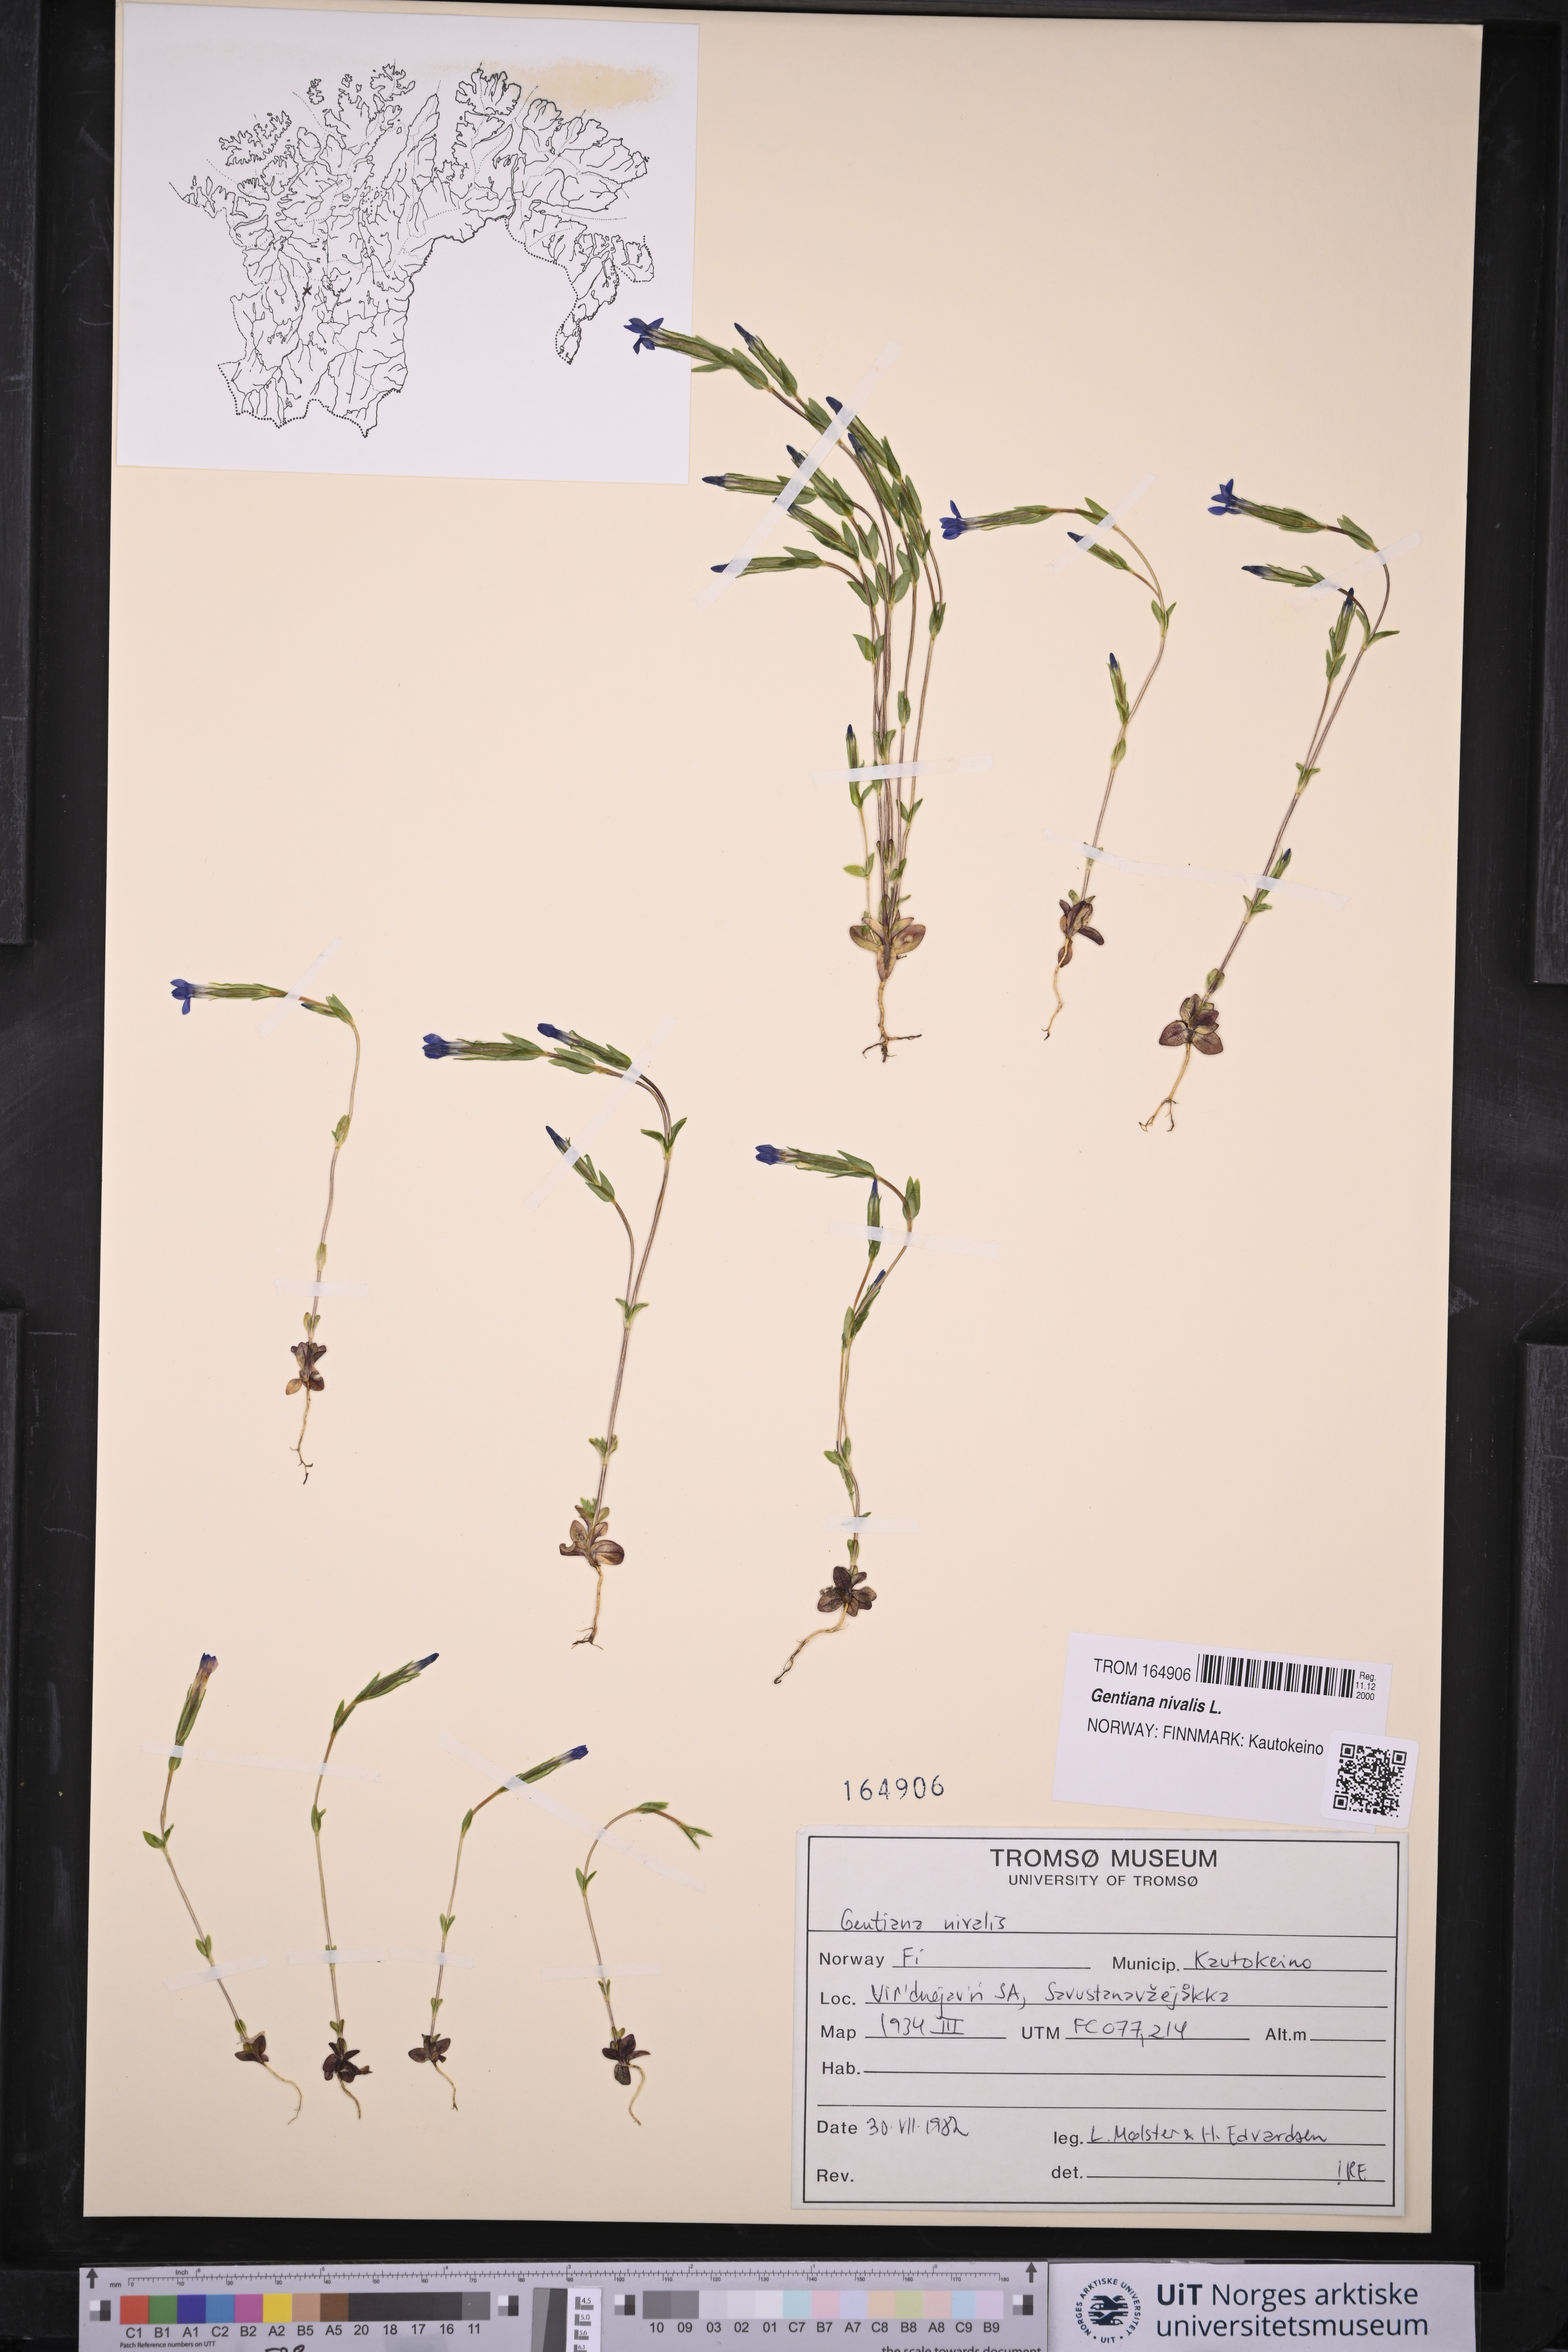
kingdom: Plantae
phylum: Tracheophyta
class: Magnoliopsida
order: Gentianales
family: Gentianaceae
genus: Gentiana
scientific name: Gentiana nivalis
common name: Alpine gentian
